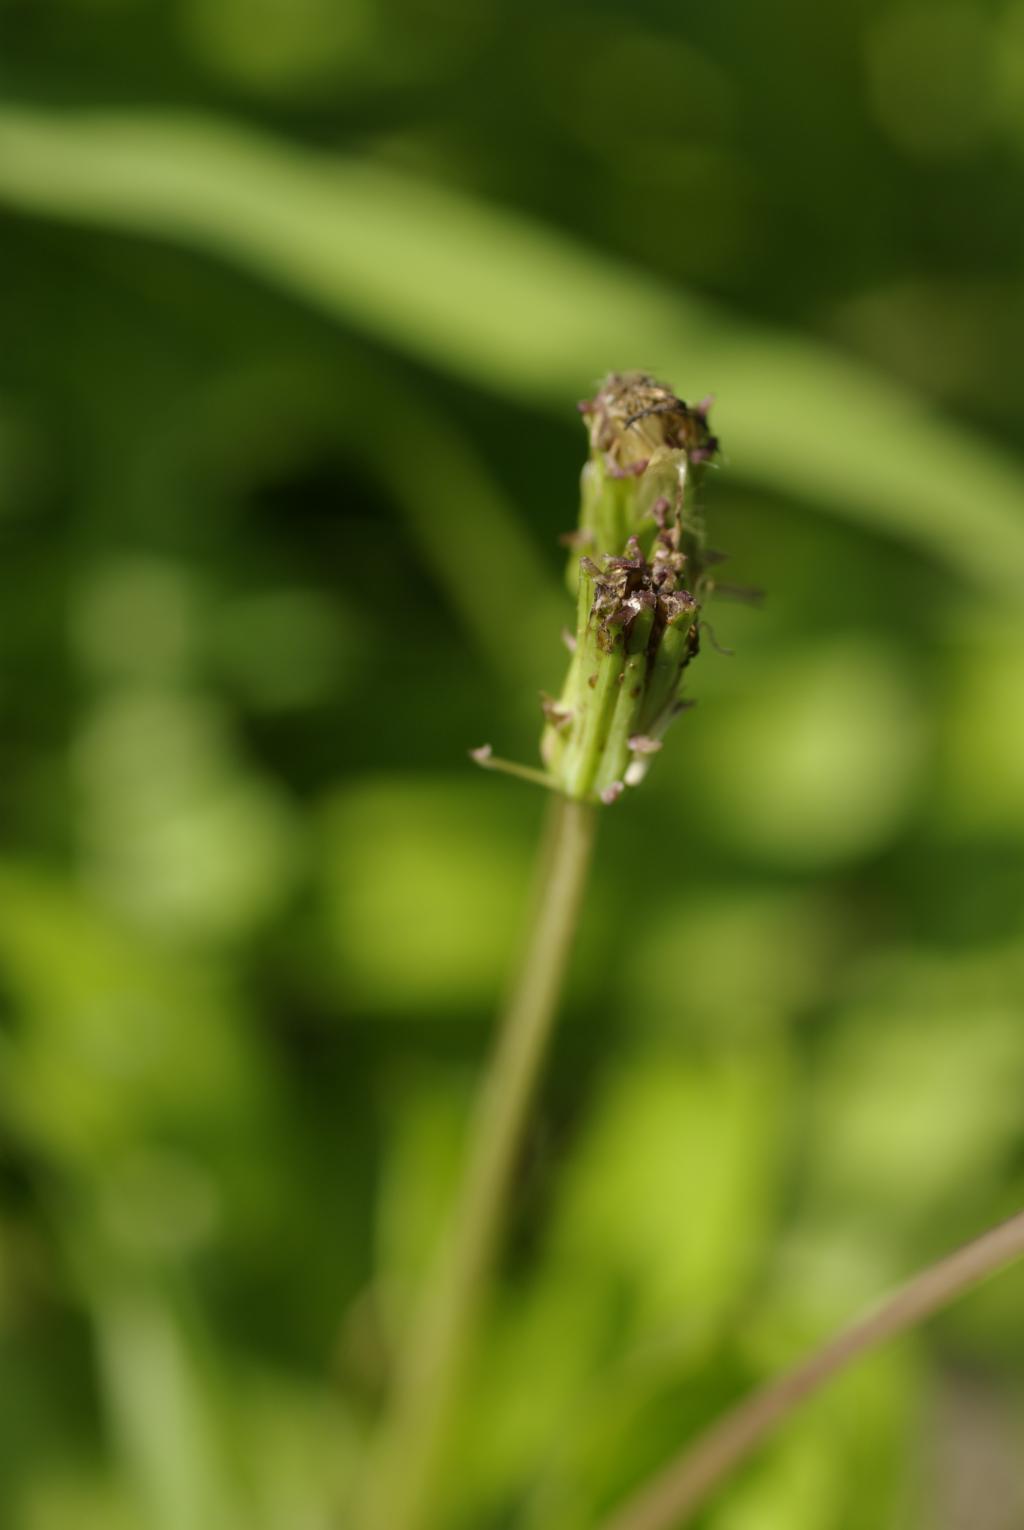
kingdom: Plantae
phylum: Tracheophyta
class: Magnoliopsida
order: Asterales
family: Asteraceae
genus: Taraxacum
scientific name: Taraxacum formosanum
